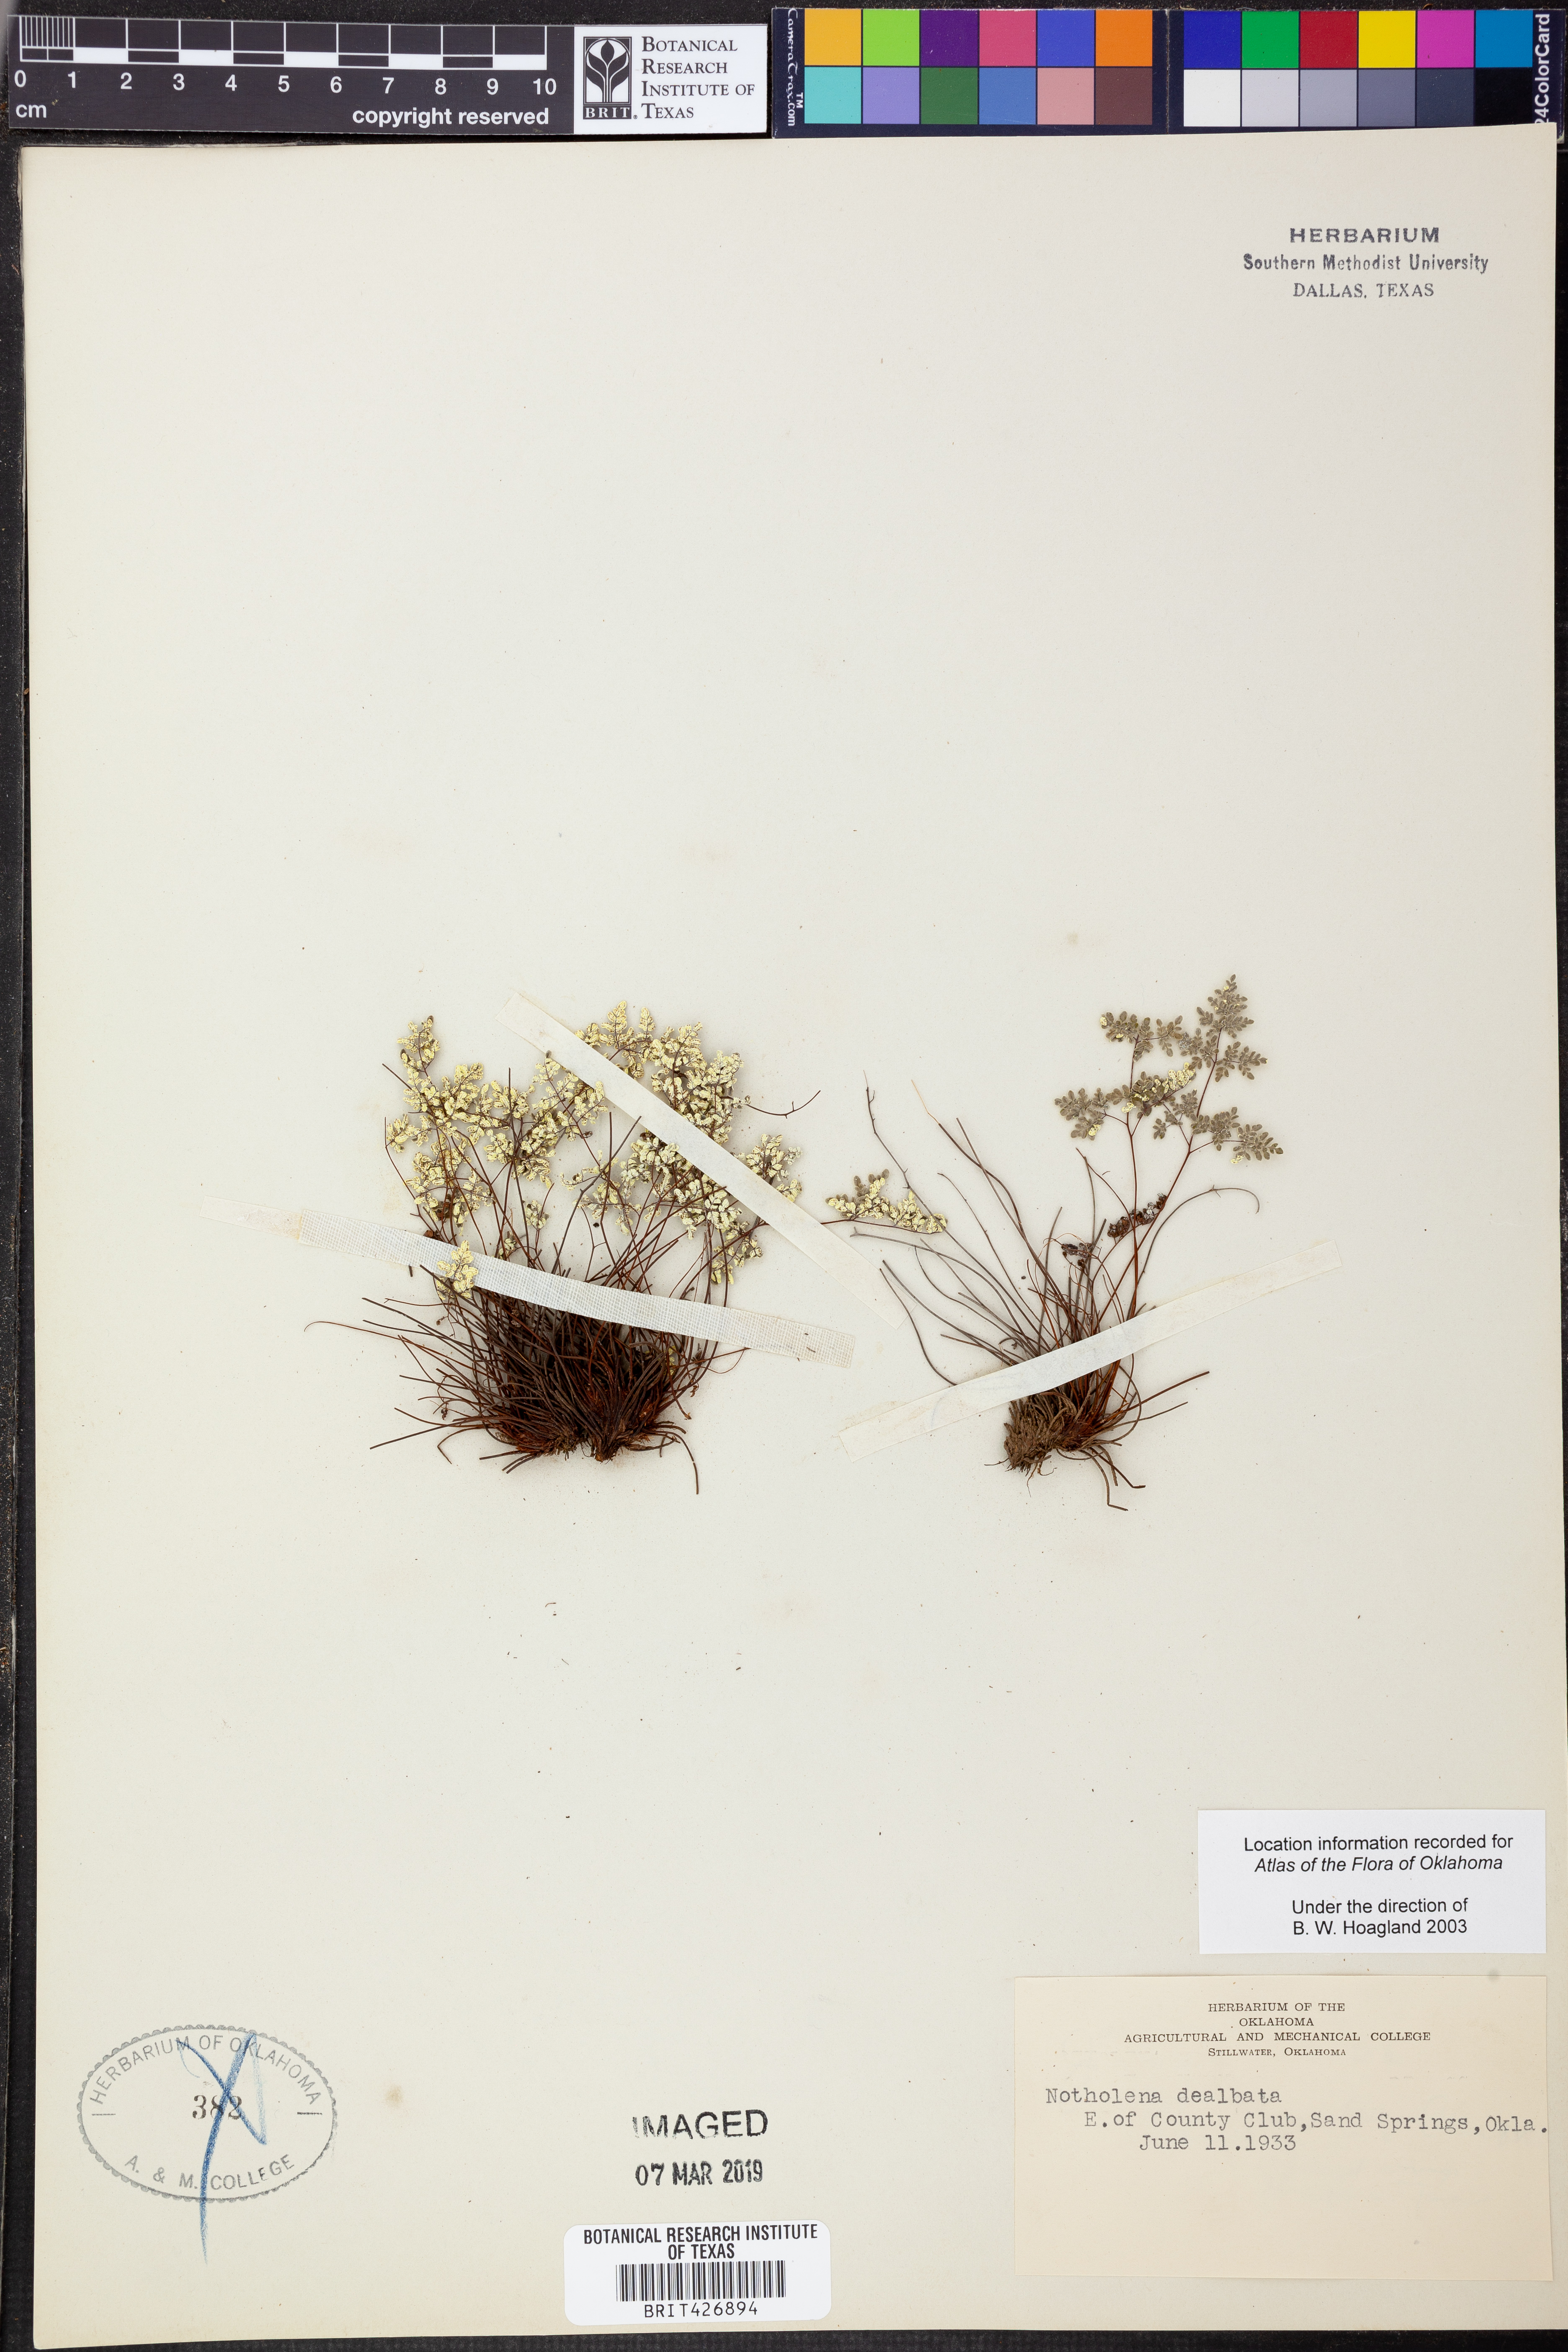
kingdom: Plantae
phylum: Tracheophyta
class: Polypodiopsida
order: Polypodiales
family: Pteridaceae
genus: Argyrochosma
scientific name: Argyrochosma dealbata
